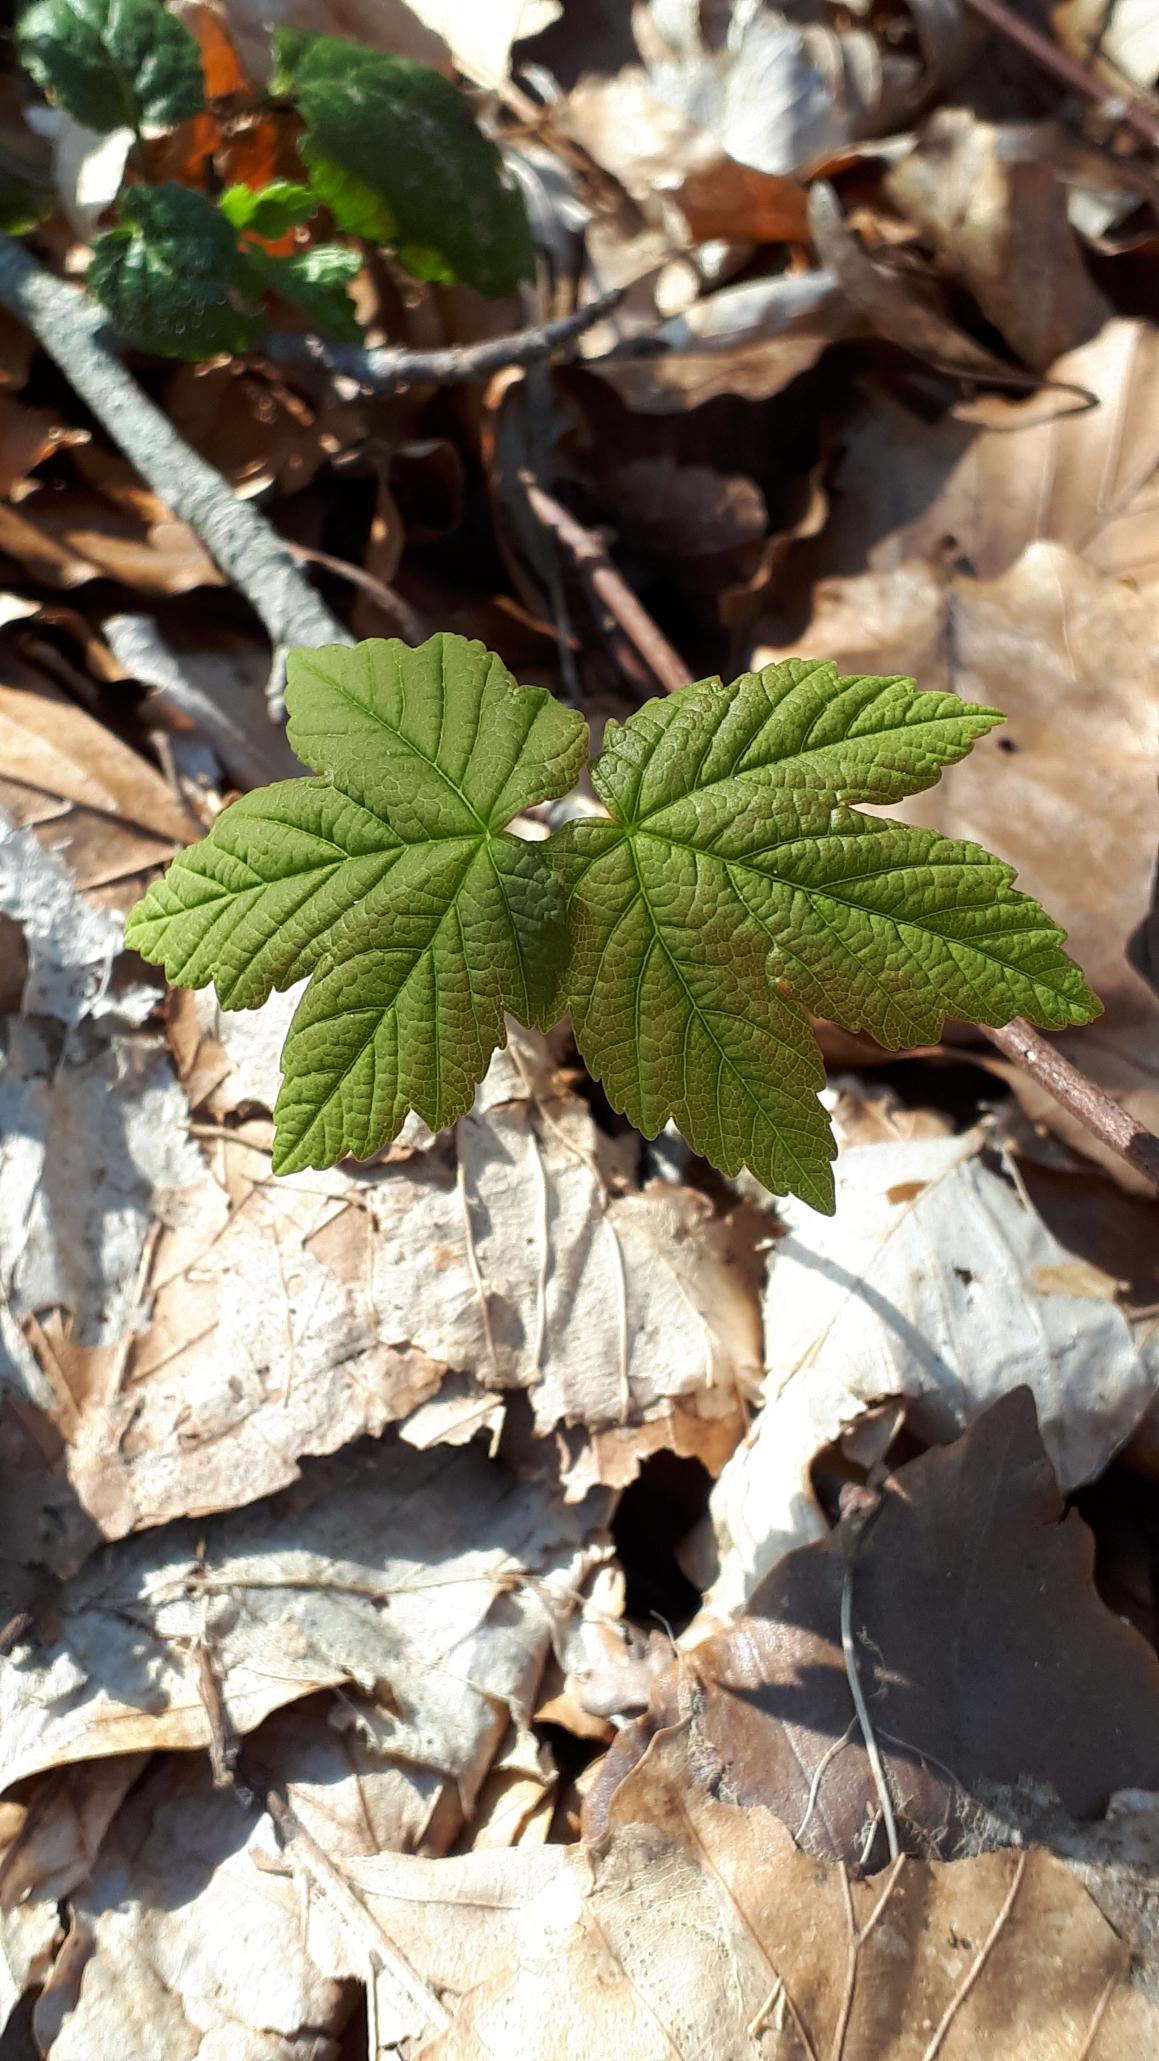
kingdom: Plantae
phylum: Tracheophyta
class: Magnoliopsida
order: Sapindales
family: Sapindaceae
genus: Acer
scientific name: Acer pseudoplatanus
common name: Ahorn
